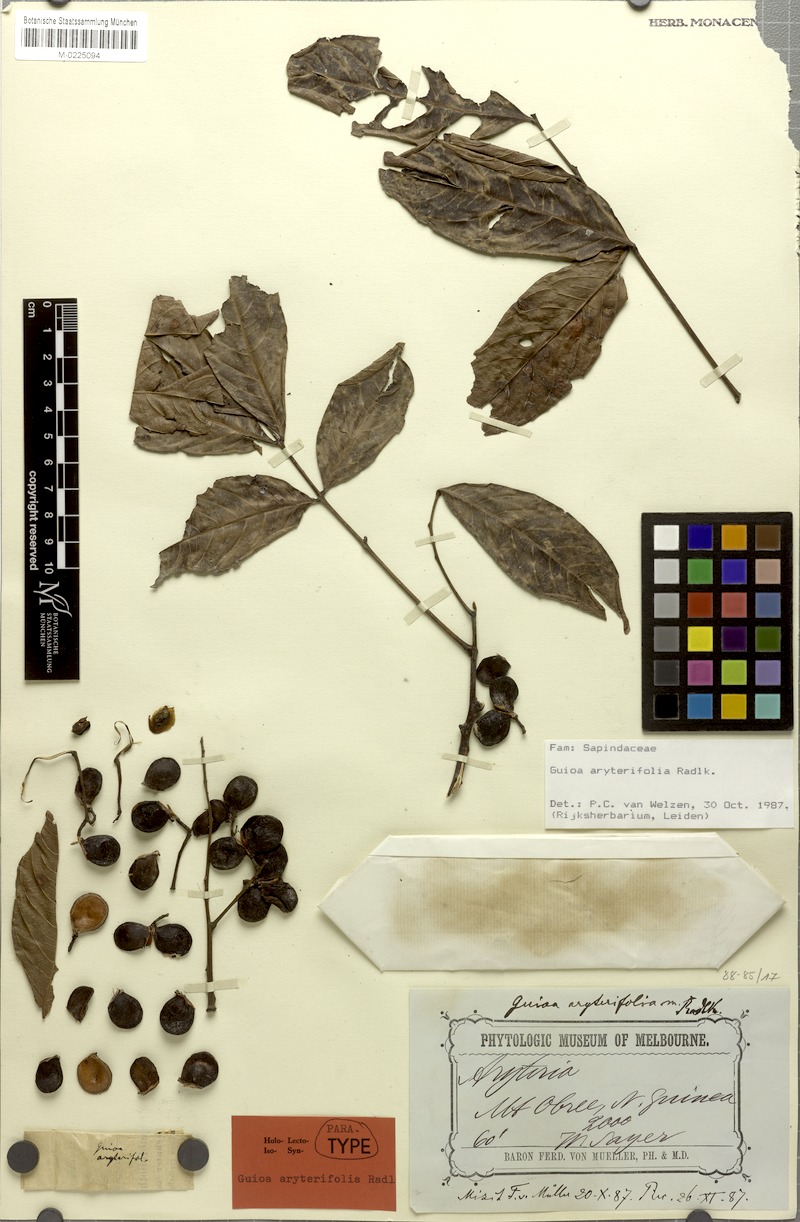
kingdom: Plantae
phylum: Tracheophyta
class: Magnoliopsida
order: Sapindales
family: Sapindaceae
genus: Guioa
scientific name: Guioa aryterifolia
